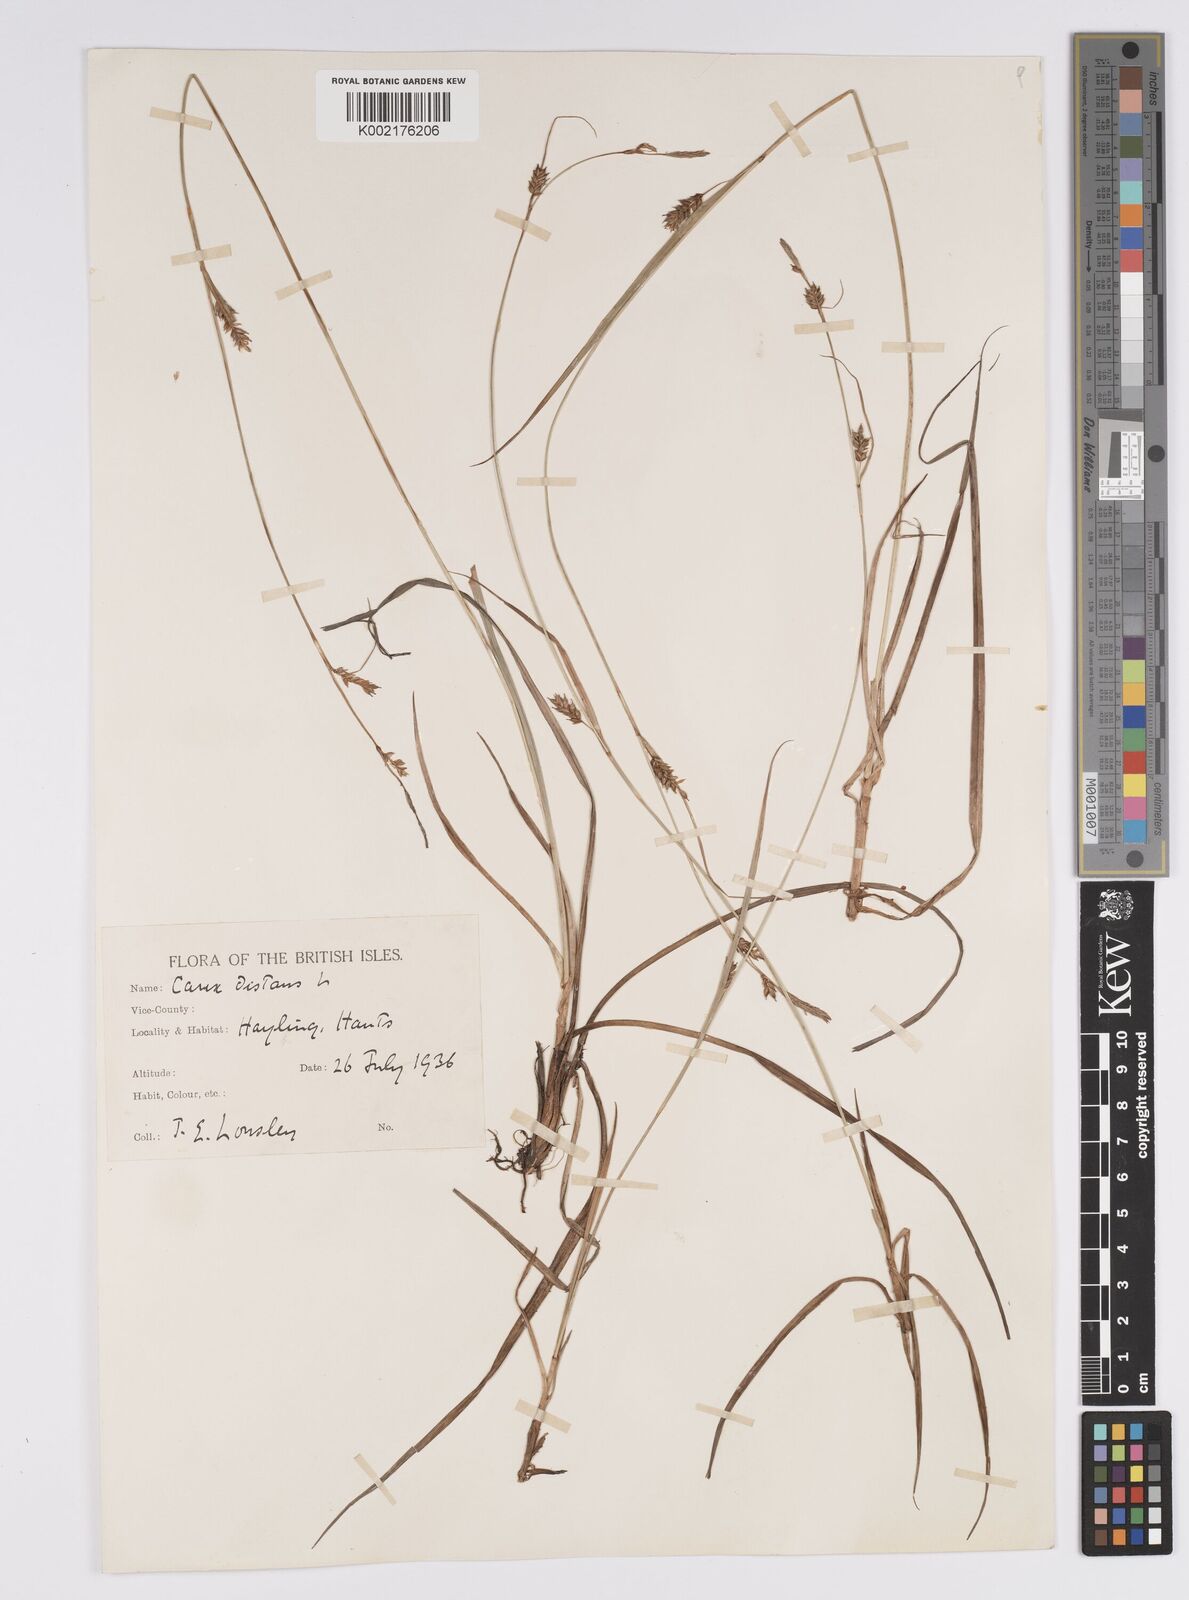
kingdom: Plantae
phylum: Tracheophyta
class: Liliopsida
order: Poales
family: Cyperaceae
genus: Carex
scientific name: Carex distans
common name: Distant sedge
